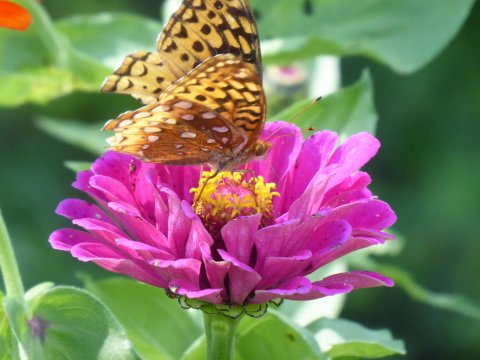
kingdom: Animalia
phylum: Arthropoda
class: Insecta
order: Lepidoptera
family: Nymphalidae
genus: Speyeria
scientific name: Speyeria cybele
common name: Great Spangled Fritillary
